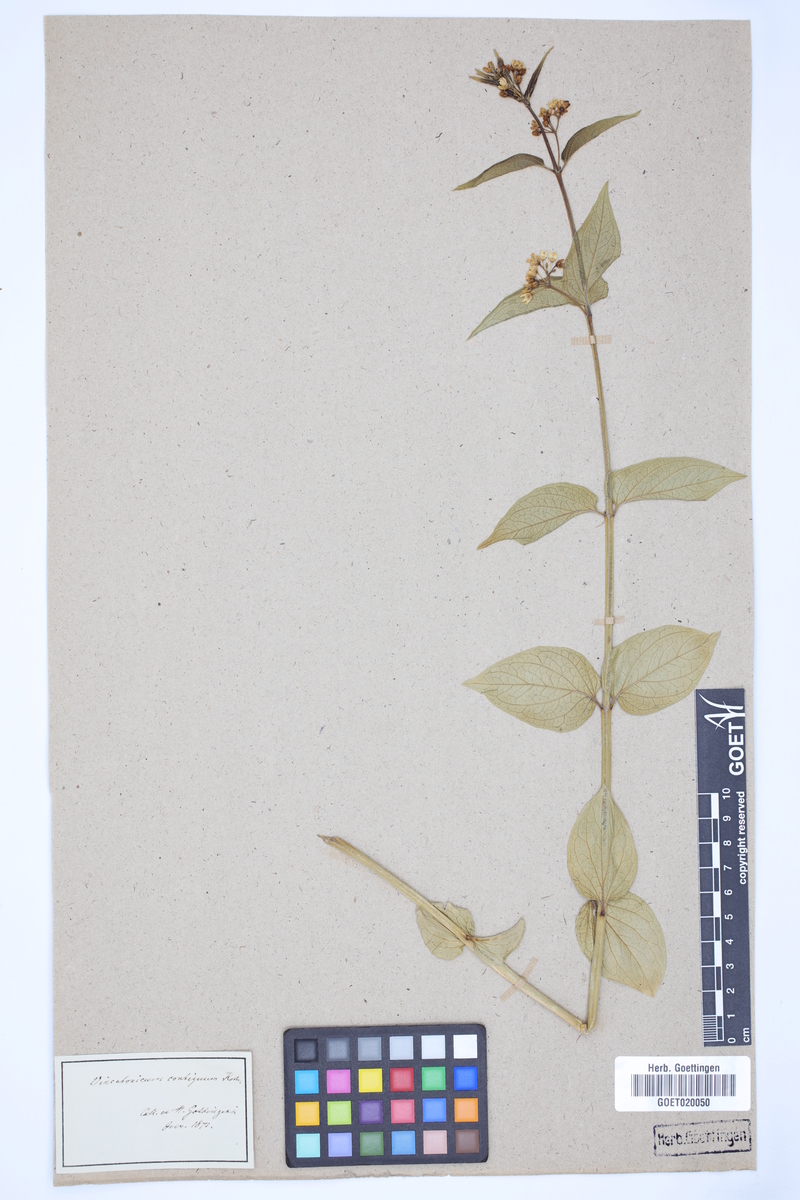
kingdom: Plantae
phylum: Tracheophyta
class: Magnoliopsida
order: Gentianales
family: Apocynaceae
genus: Vincetoxicum
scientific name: Vincetoxicum hirundinaria
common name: White swallowwort
